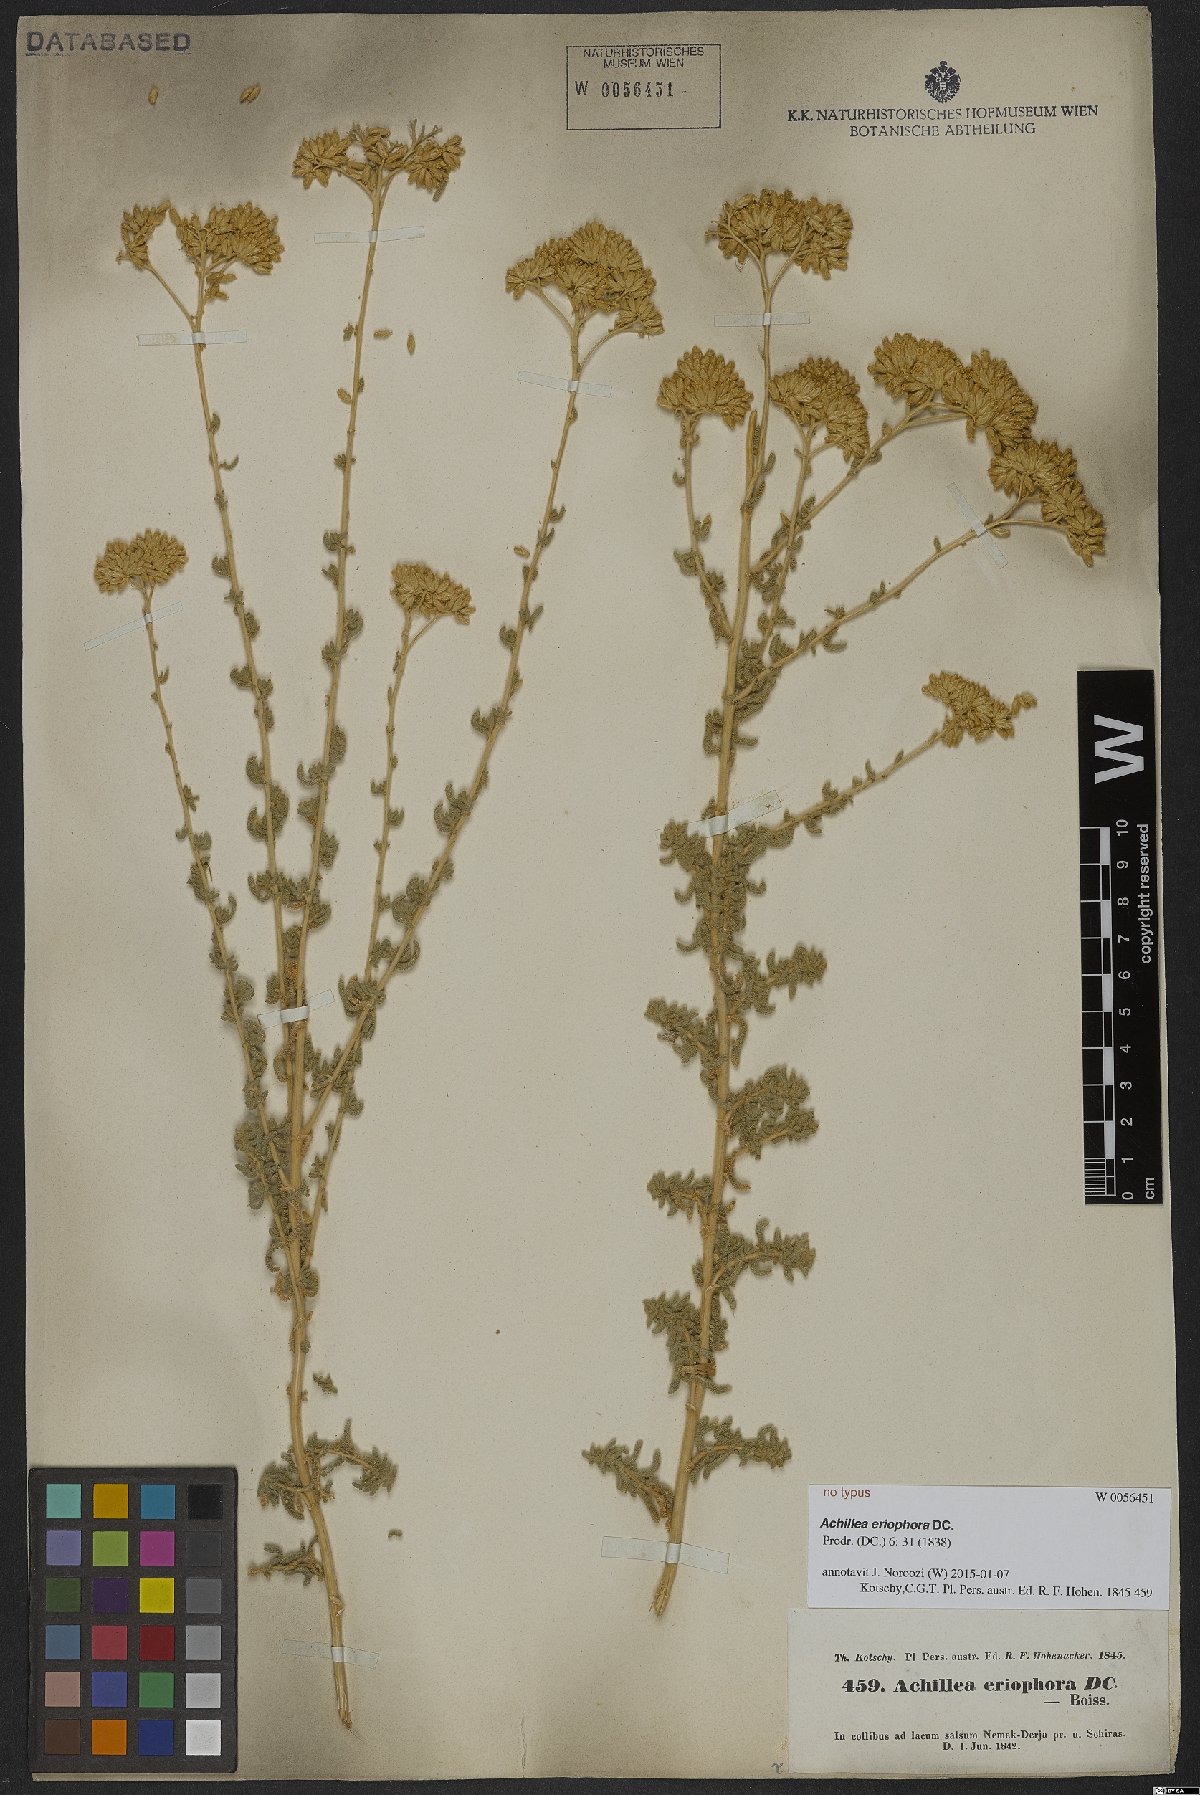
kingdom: Plantae
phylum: Tracheophyta
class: Magnoliopsida
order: Asterales
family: Asteraceae
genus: Achillea
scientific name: Achillea eriophora
